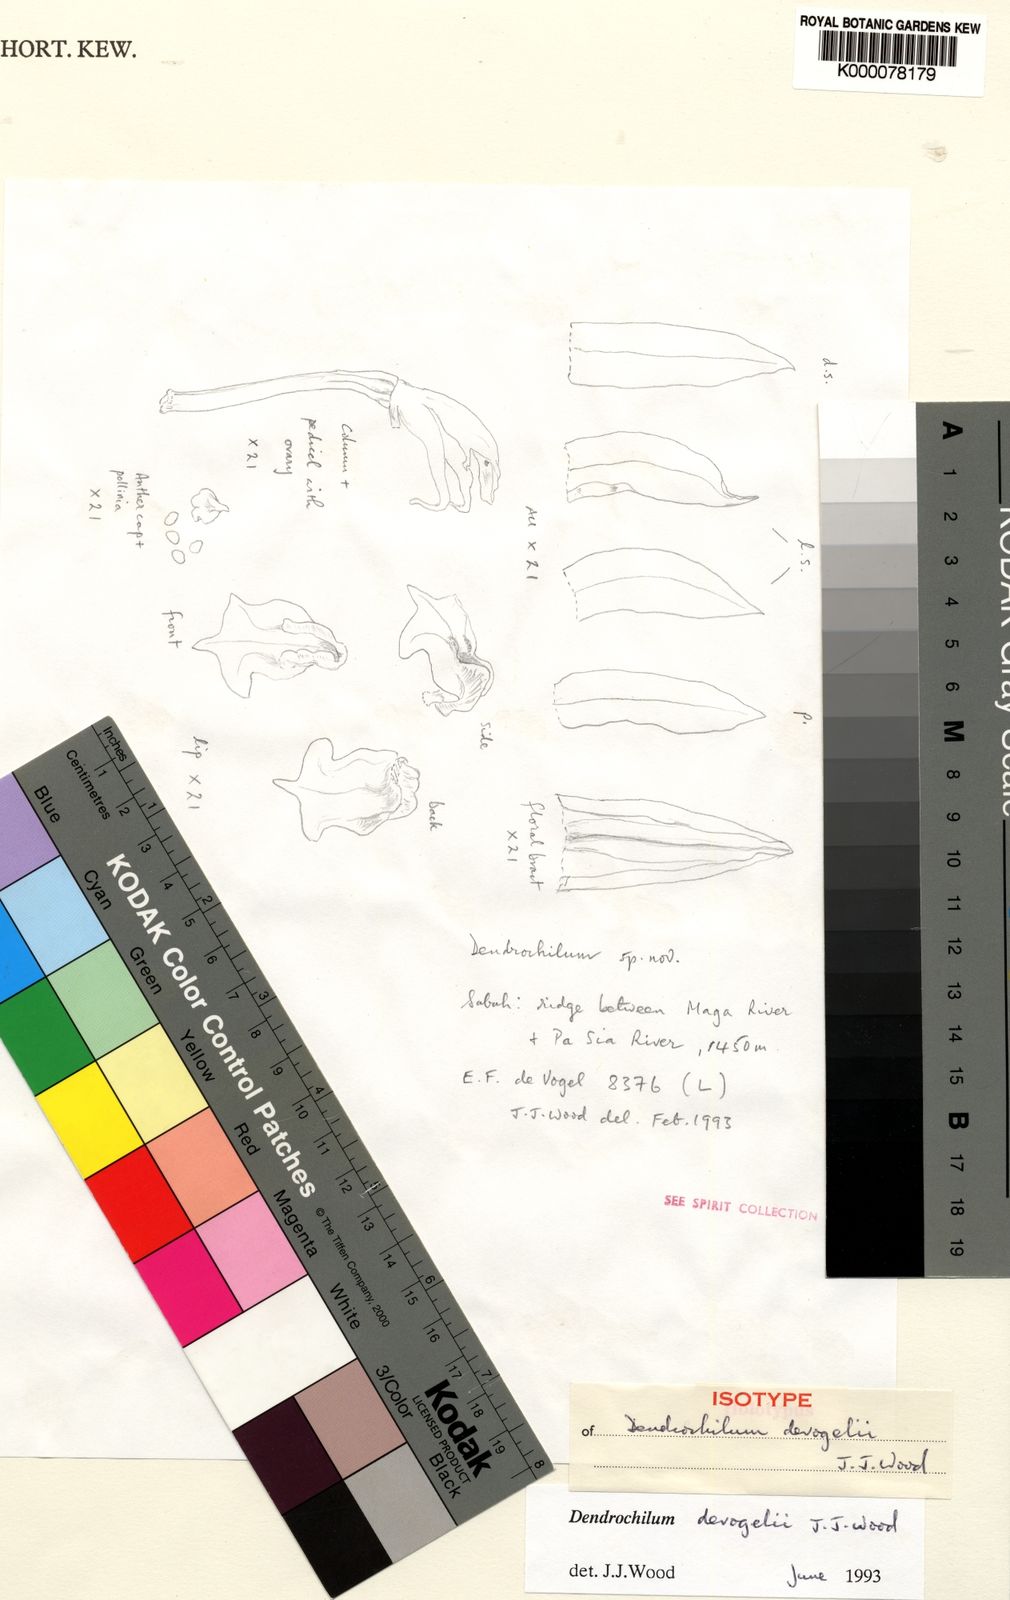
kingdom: Plantae
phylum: Tracheophyta
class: Liliopsida
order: Asparagales
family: Orchidaceae
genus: Coelogyne
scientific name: Coelogyne devogelii
